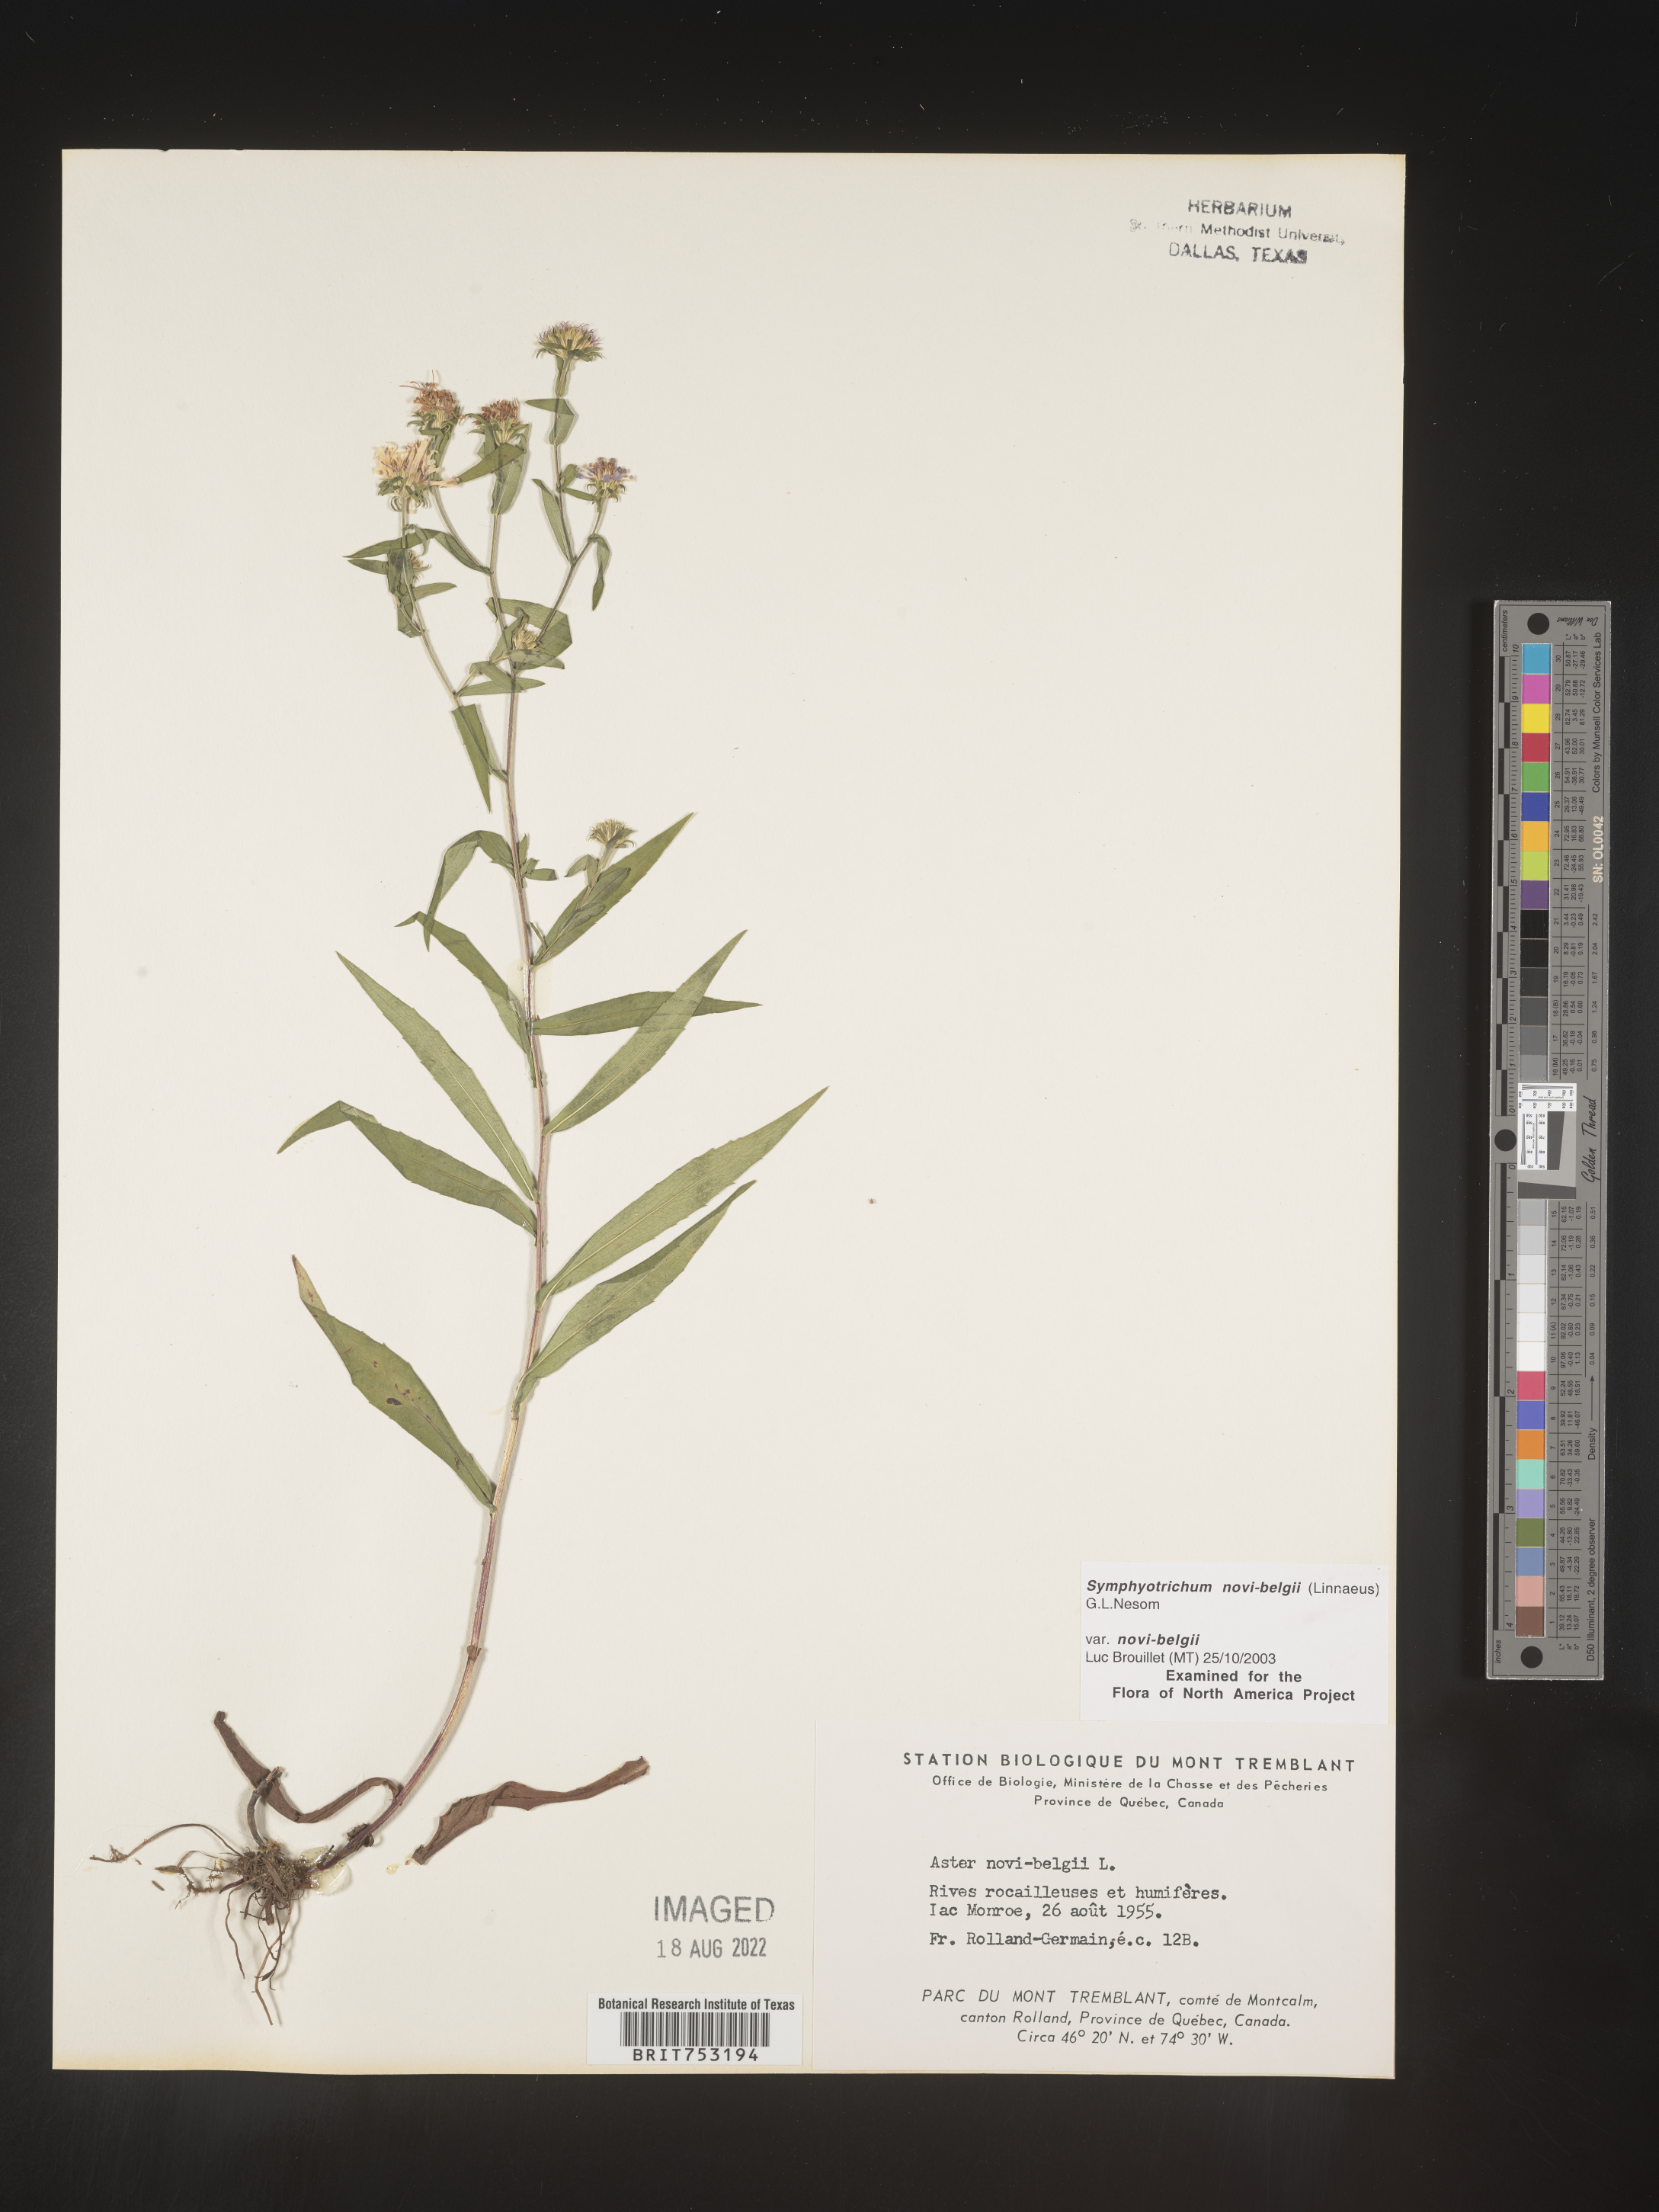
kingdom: Plantae
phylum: Tracheophyta
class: Magnoliopsida
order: Asterales
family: Asteraceae
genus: Symphyotrichum
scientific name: Symphyotrichum novi-belgii
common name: Michaelmas daisy
